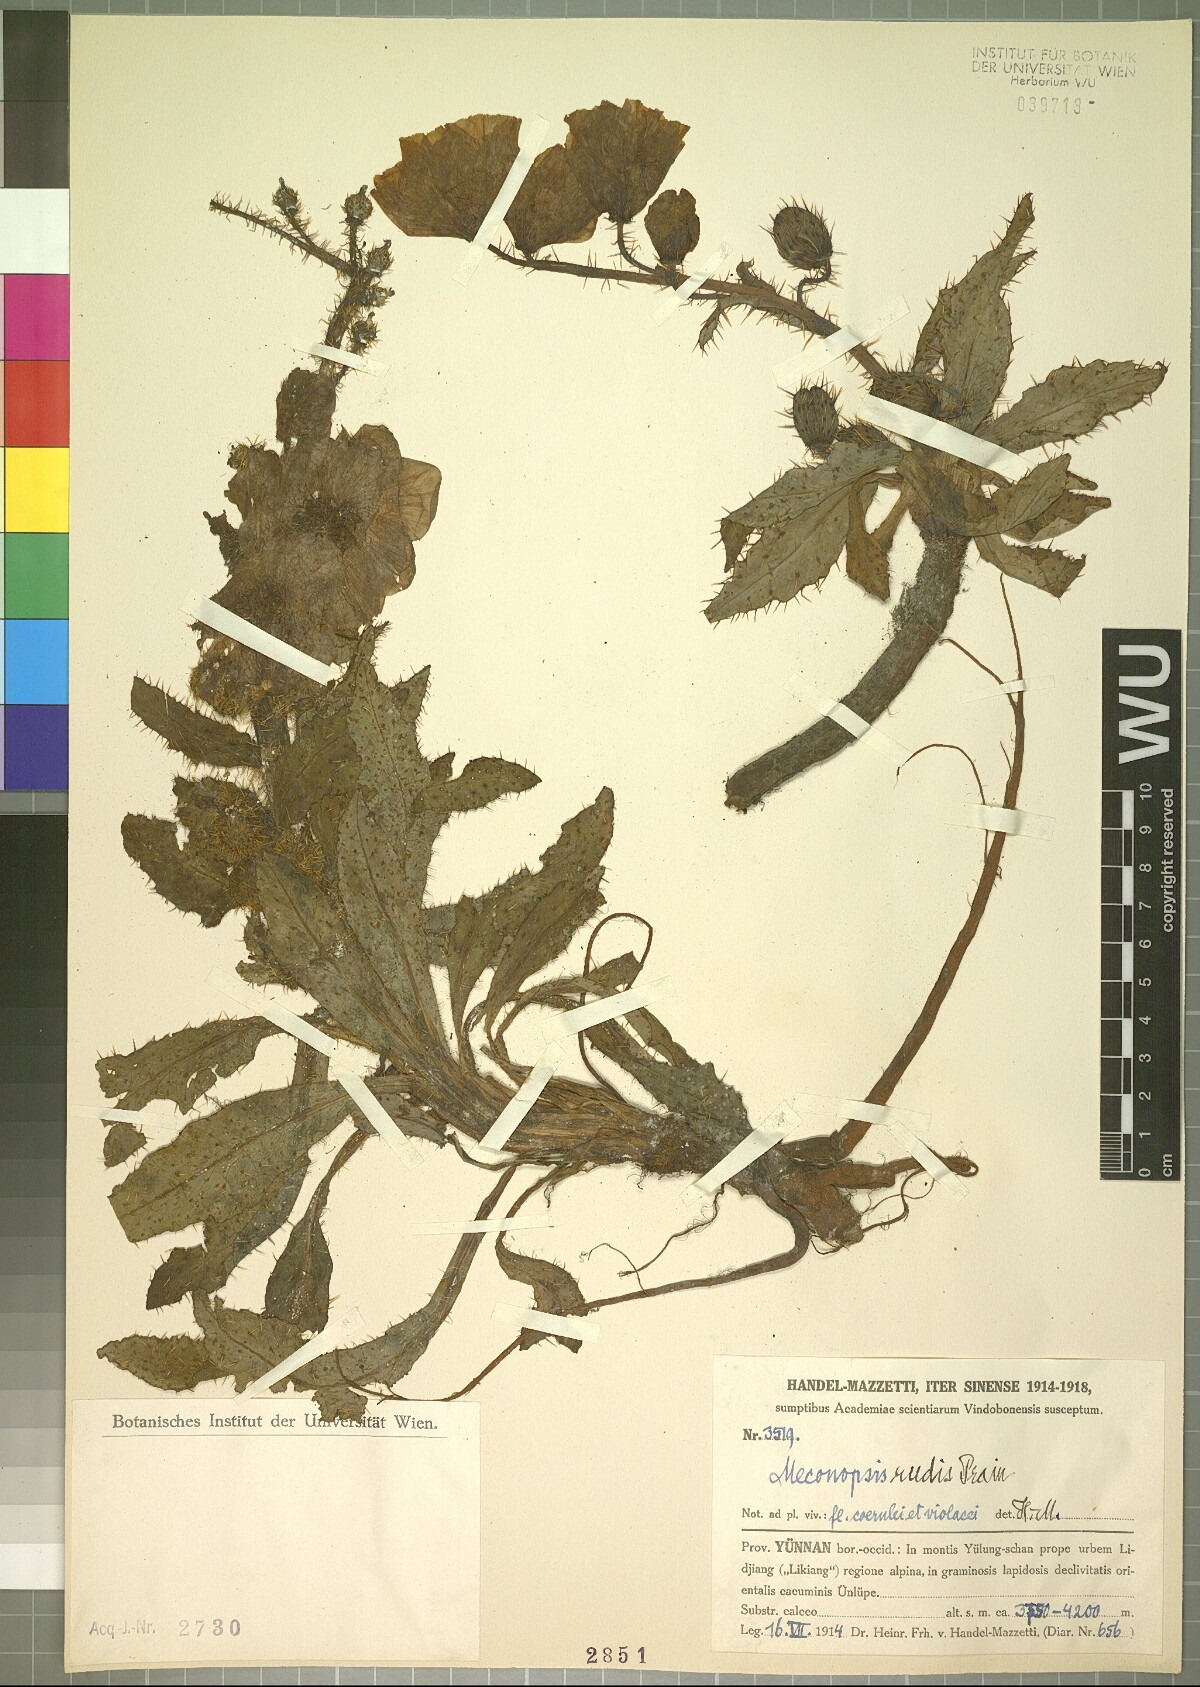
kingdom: Plantae
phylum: Tracheophyta
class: Magnoliopsida
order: Ranunculales
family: Papaveraceae
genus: Meconopsis
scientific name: Meconopsis rudis
